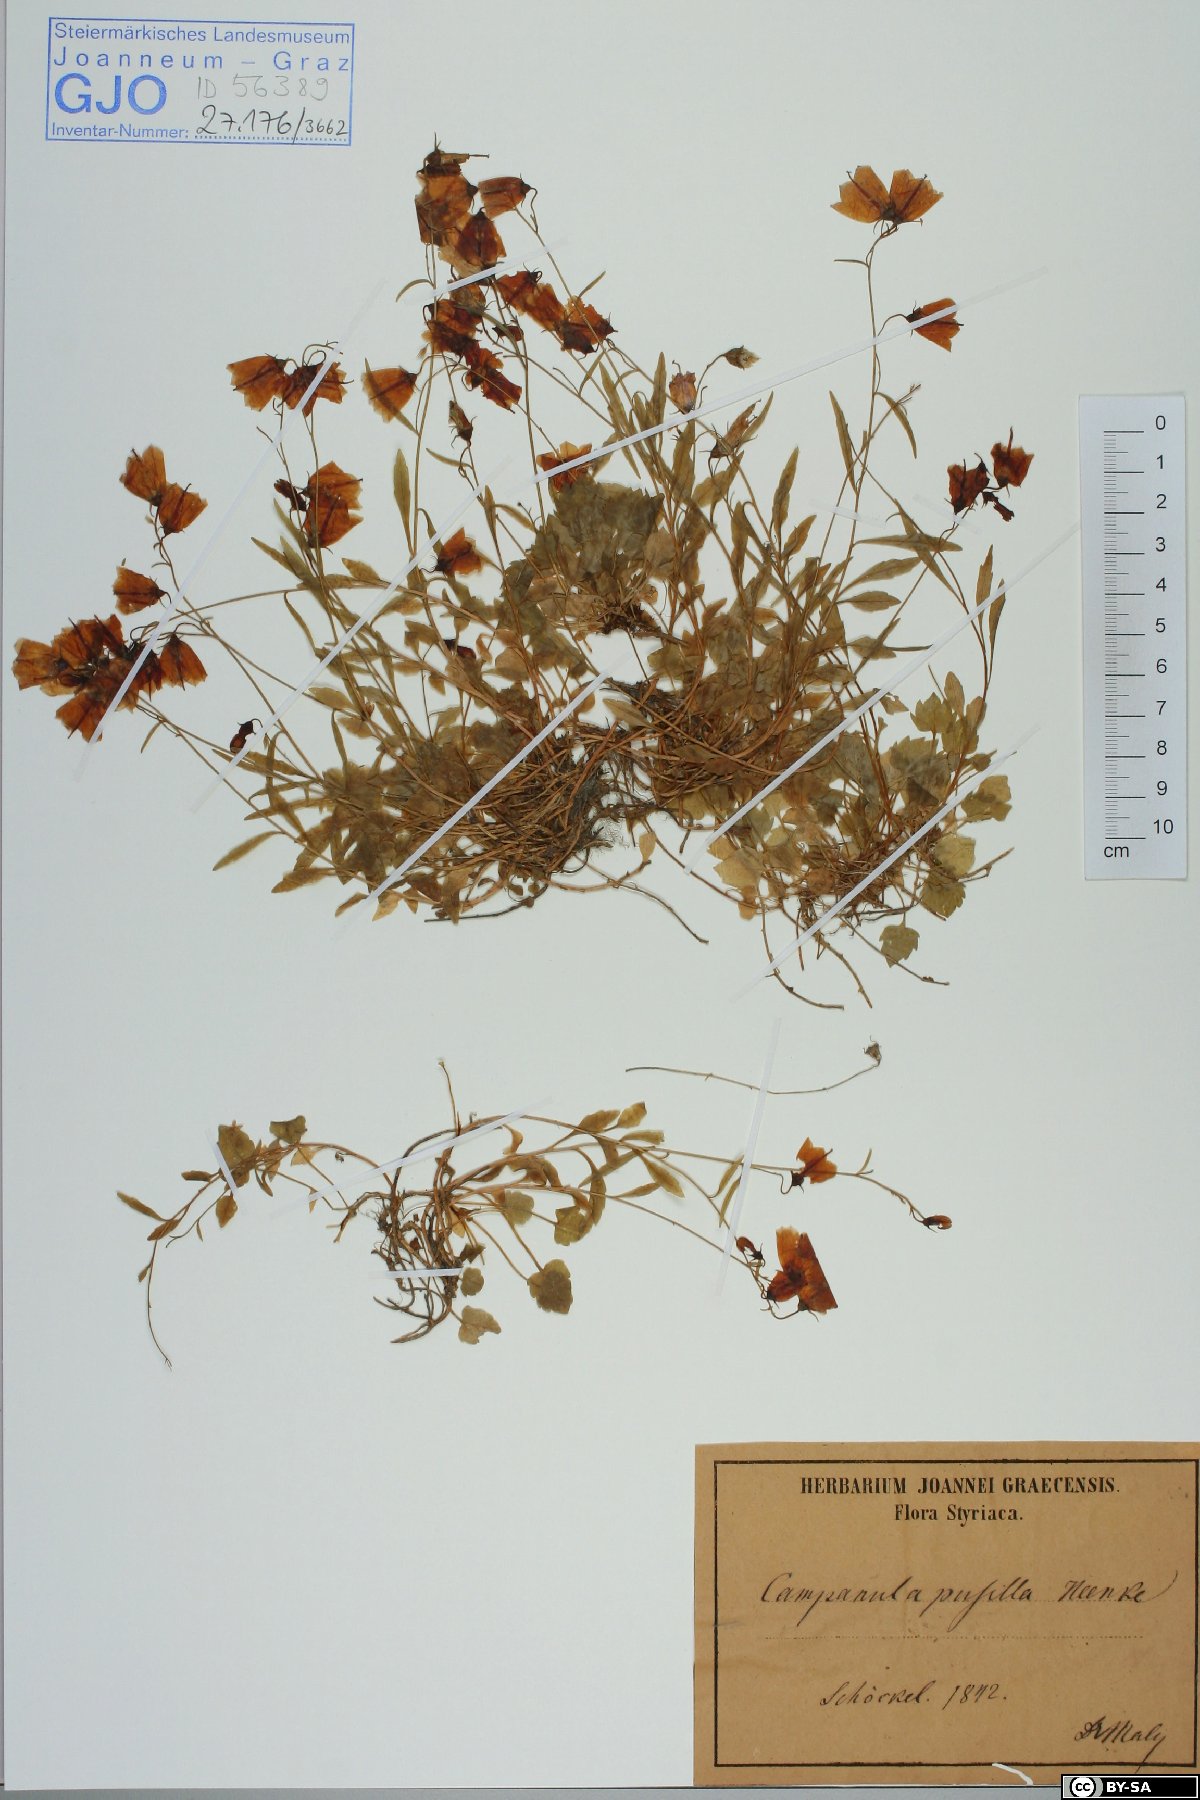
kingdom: Plantae
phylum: Tracheophyta
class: Magnoliopsida
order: Asterales
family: Campanulaceae
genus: Campanula
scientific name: Campanula cochleariifolia
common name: Fairies'-thimbles
